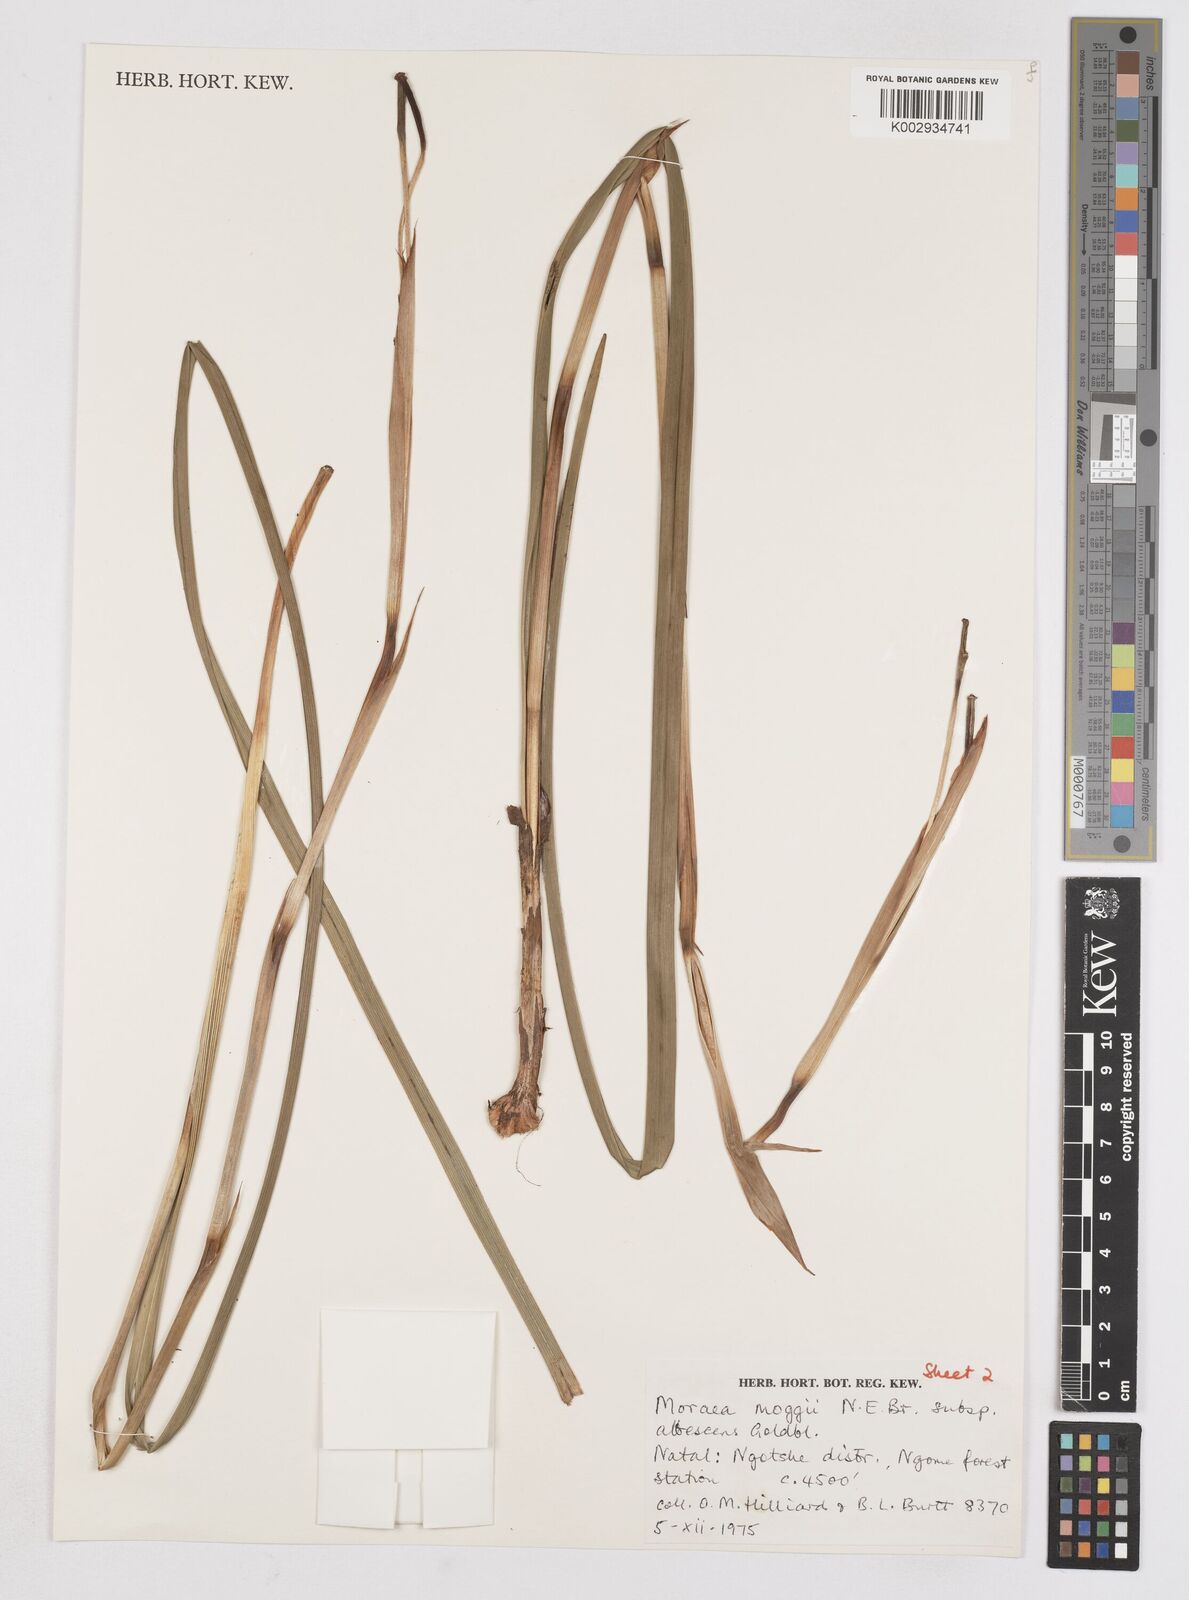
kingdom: Plantae
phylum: Tracheophyta
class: Liliopsida
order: Asparagales
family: Iridaceae
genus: Moraea
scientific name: Moraea moggii
